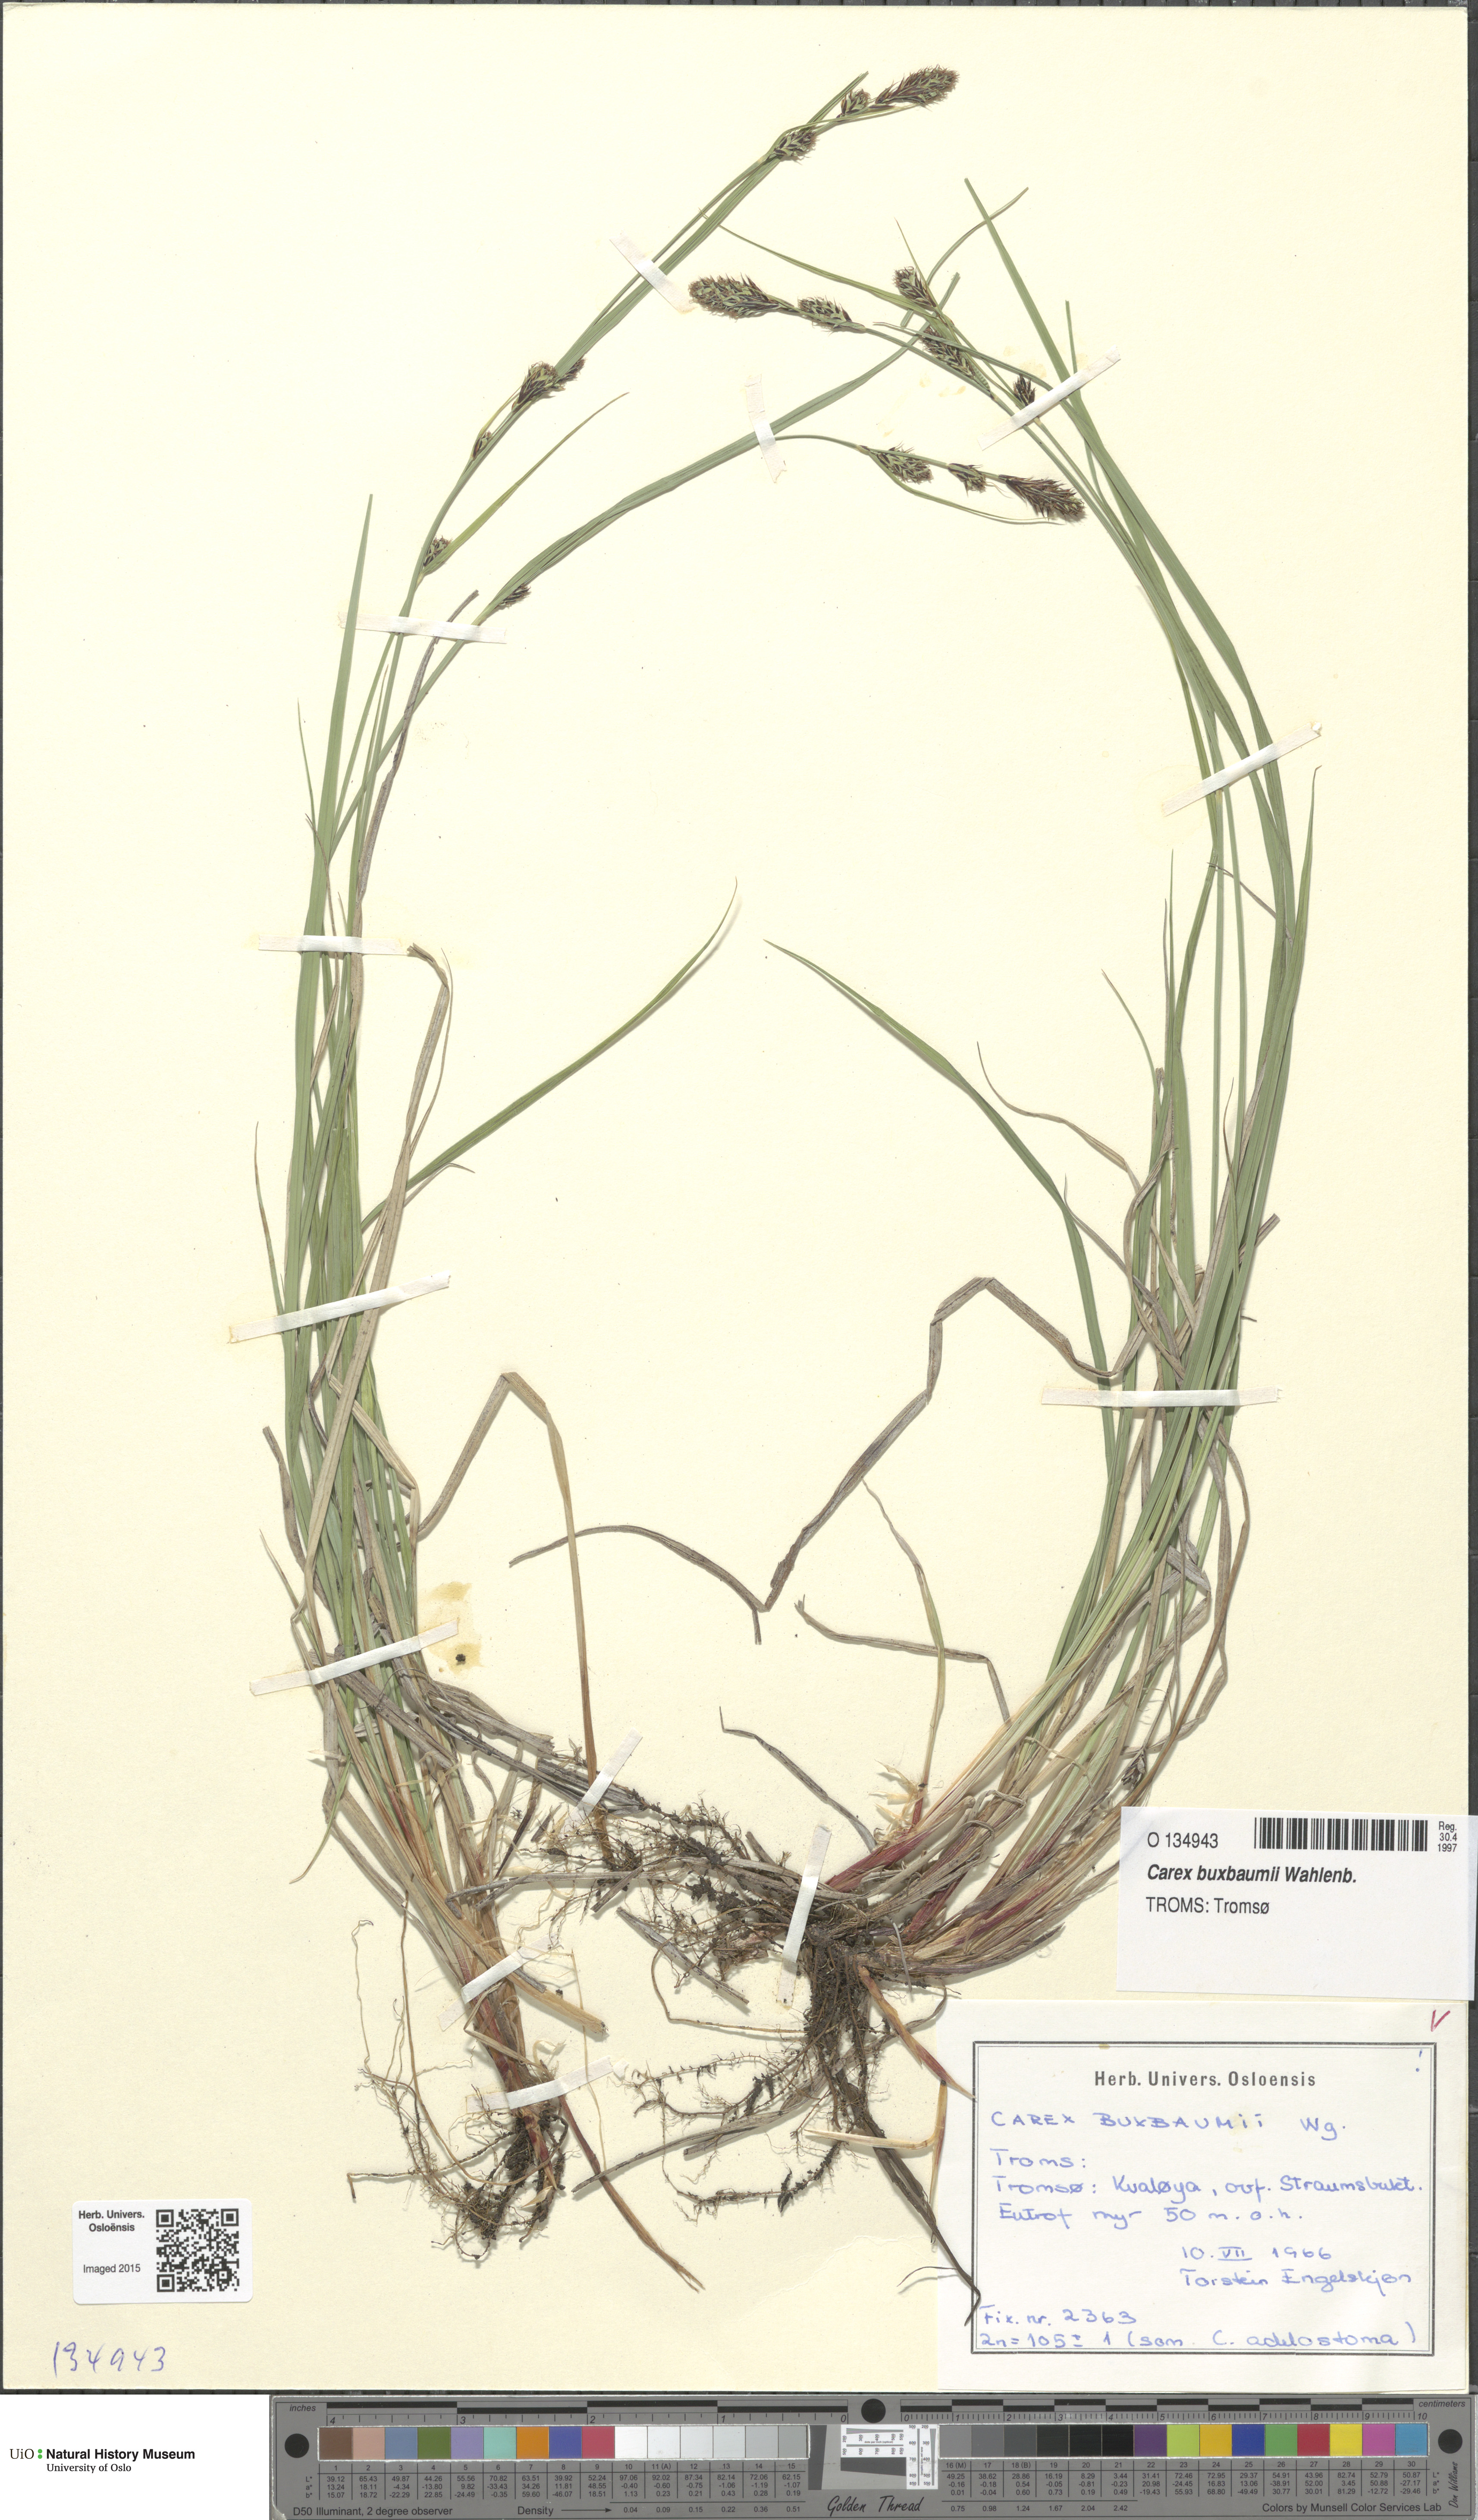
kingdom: Plantae
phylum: Tracheophyta
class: Liliopsida
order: Poales
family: Cyperaceae
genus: Carex
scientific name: Carex buxbaumii
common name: Club sedge
